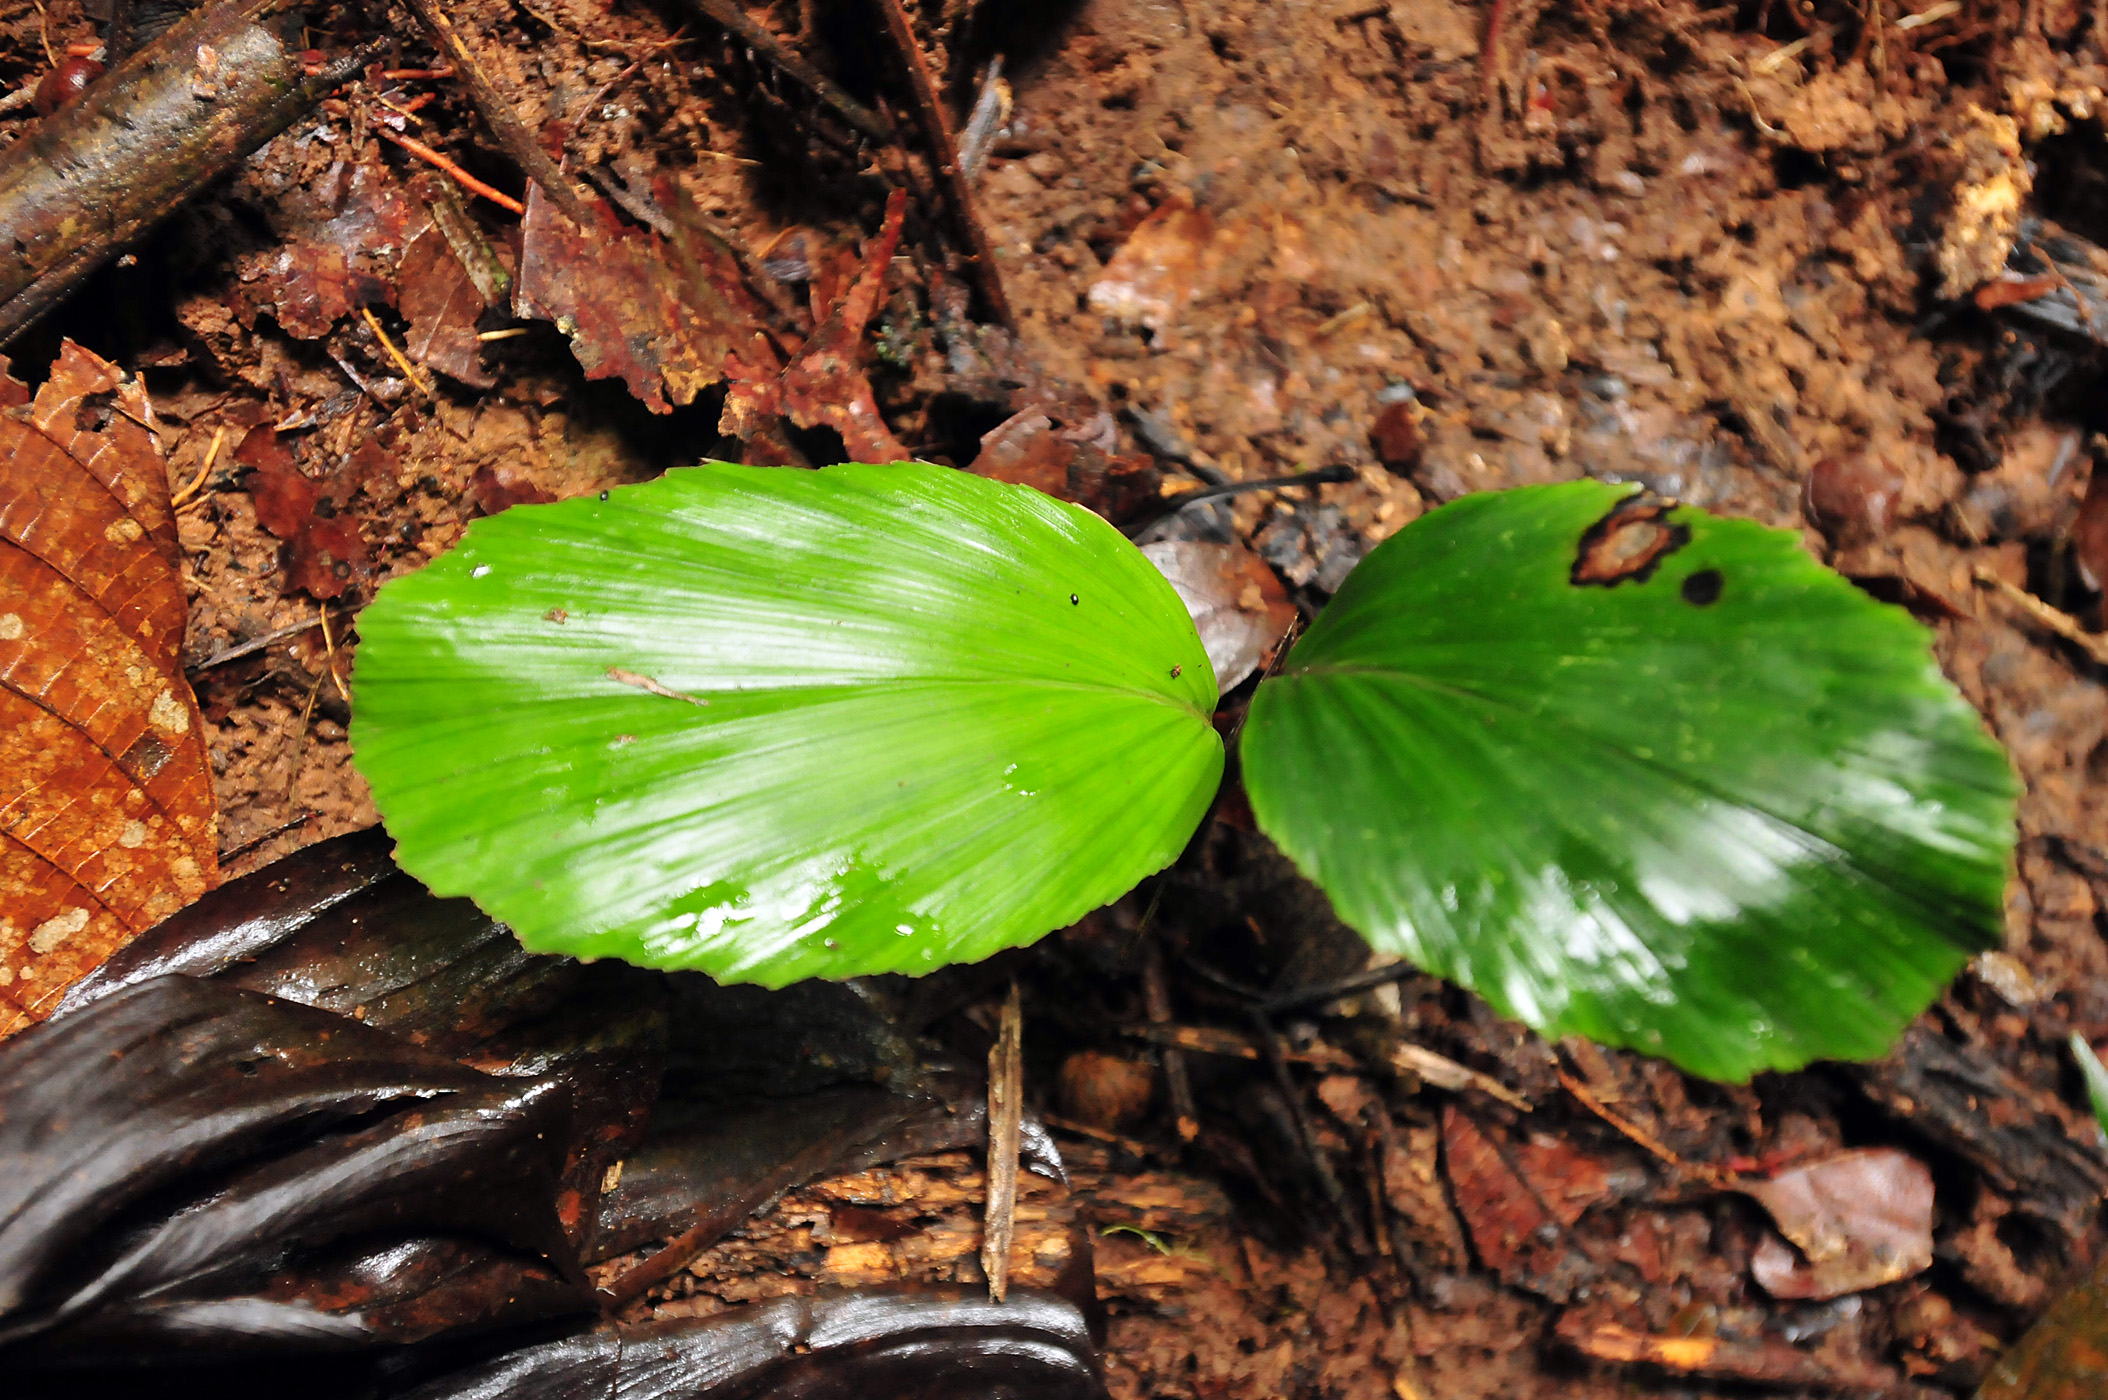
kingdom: Plantae
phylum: Tracheophyta
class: Liliopsida
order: Arecales
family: Arecaceae
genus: Iriartea
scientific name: Iriartea deltoidea
